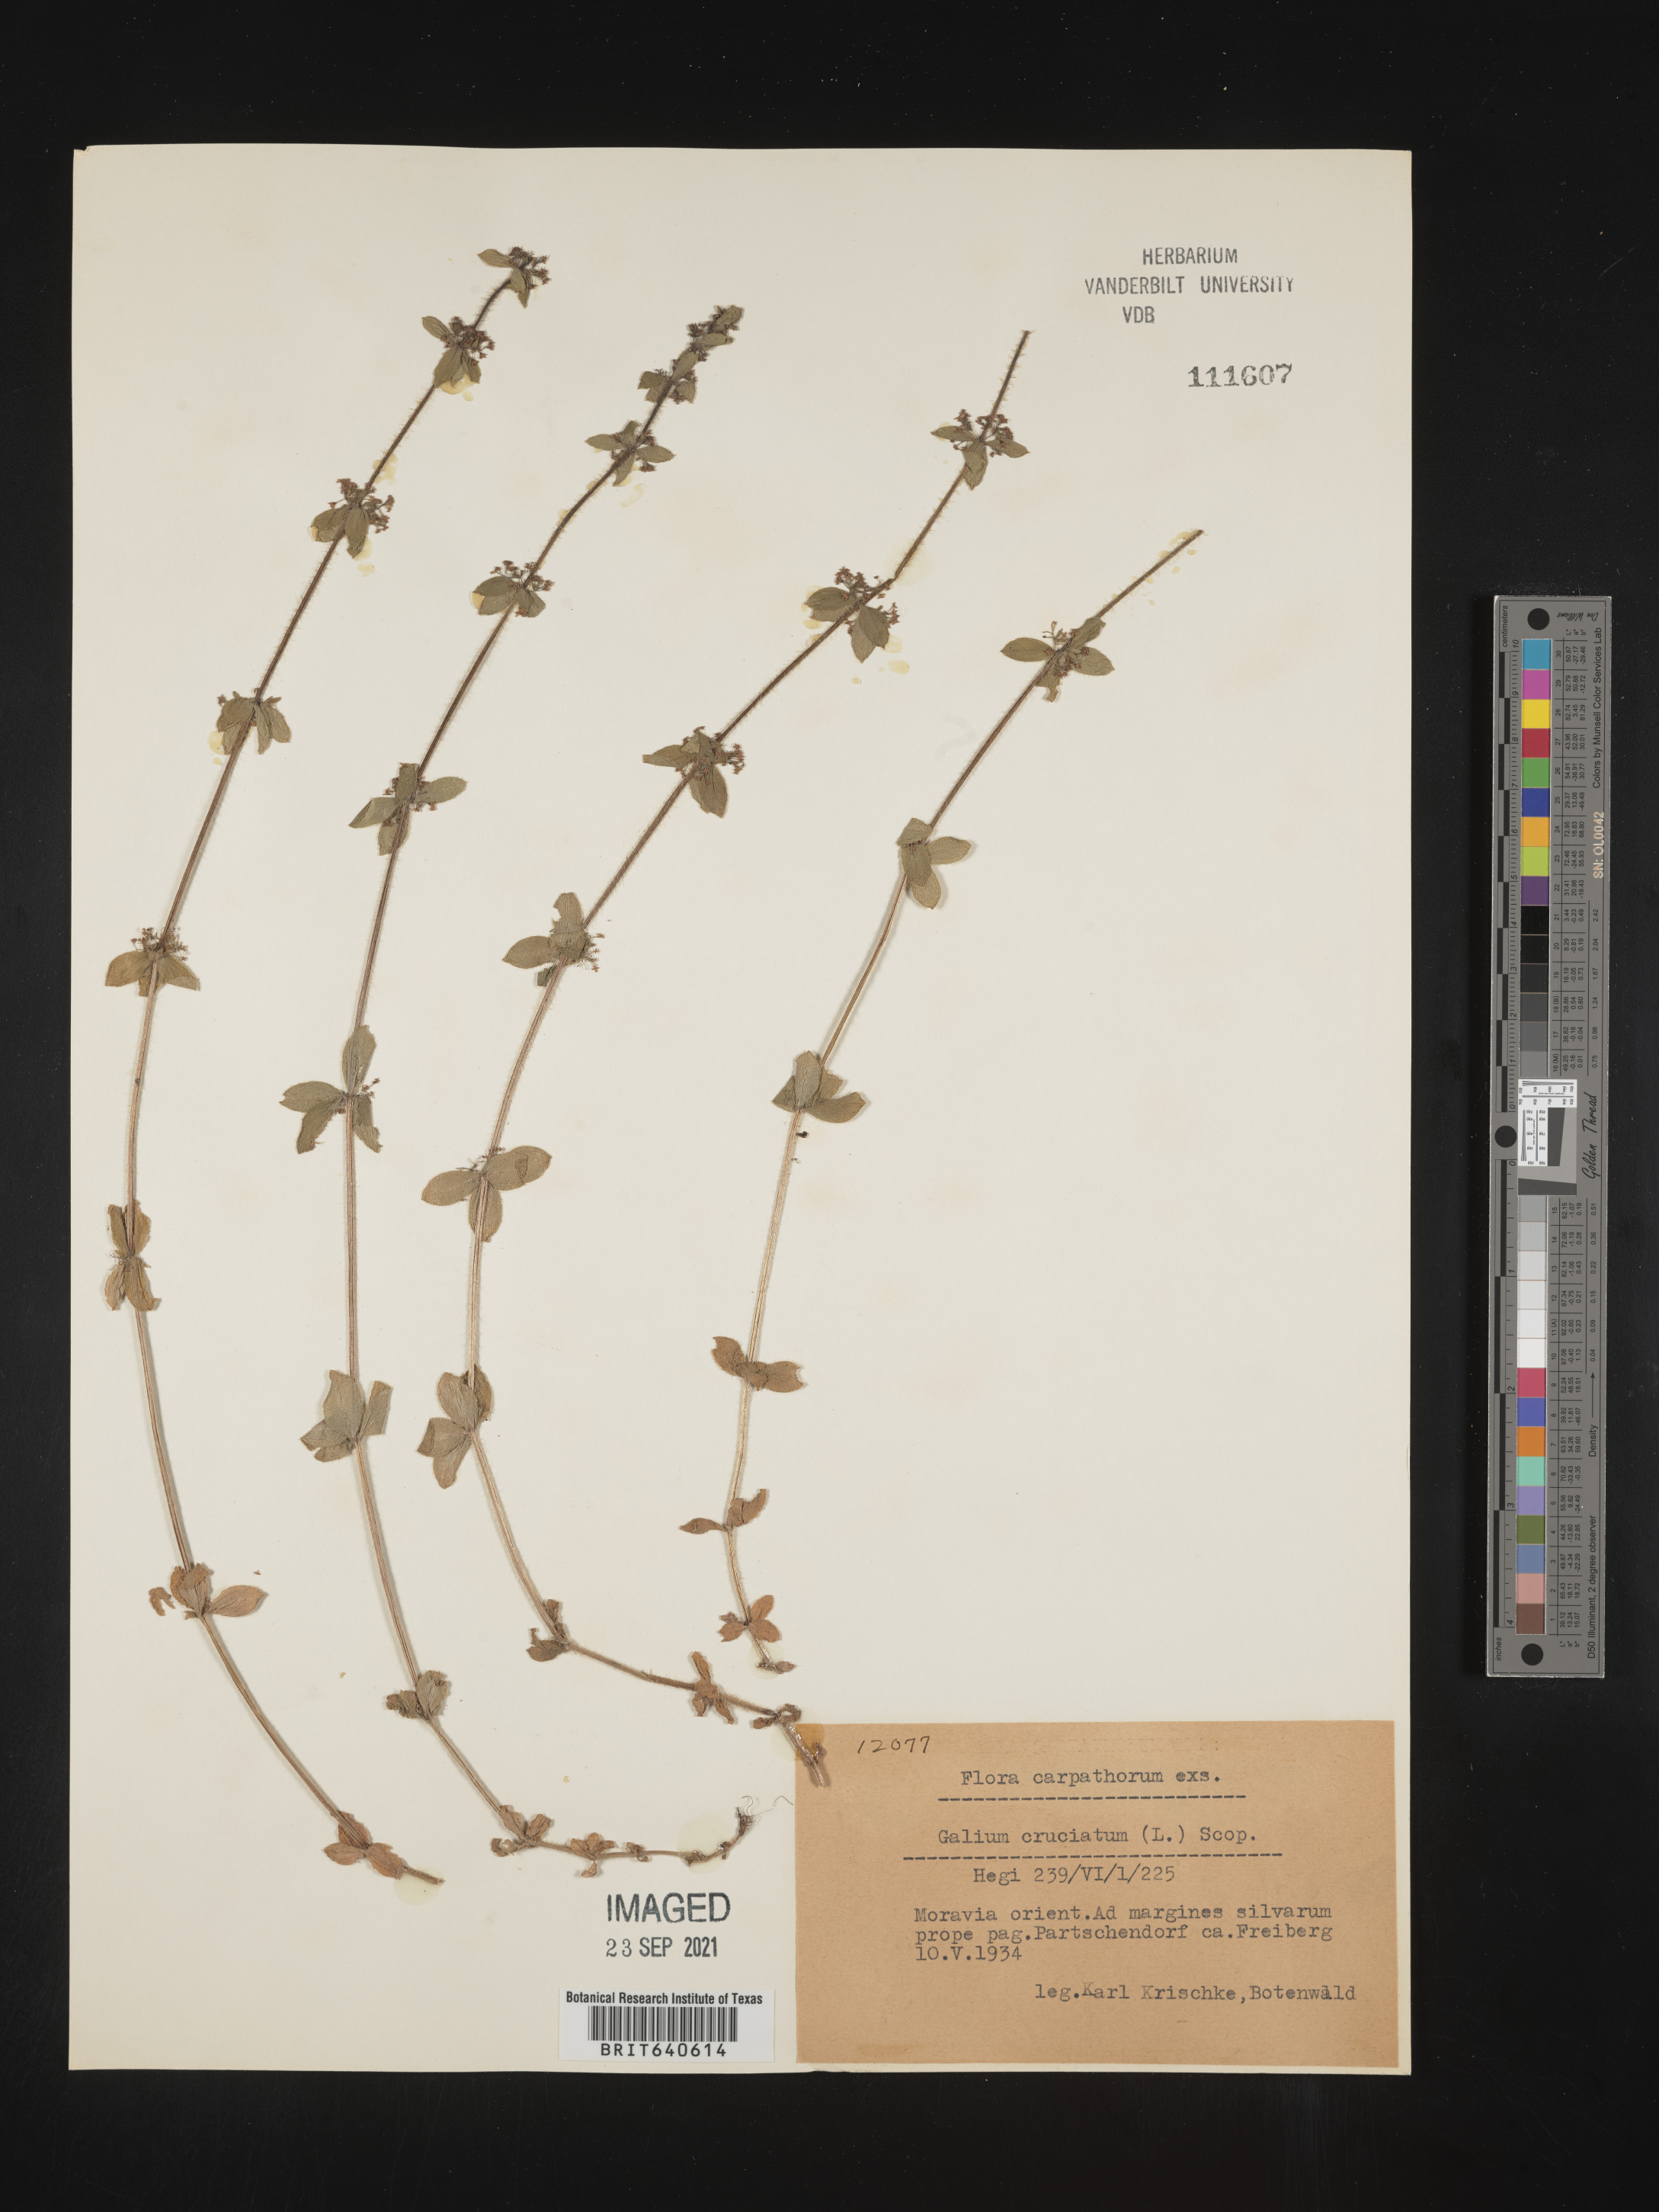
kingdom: Plantae
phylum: Tracheophyta
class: Magnoliopsida
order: Gentianales
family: Rubiaceae
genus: Galium
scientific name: Galium
